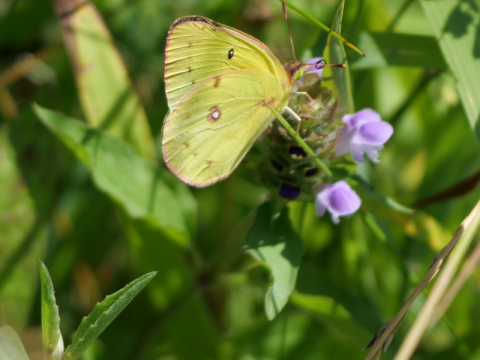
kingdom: Animalia
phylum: Arthropoda
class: Insecta
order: Lepidoptera
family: Pieridae
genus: Colias
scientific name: Colias philodice
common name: Clouded Sulphur
